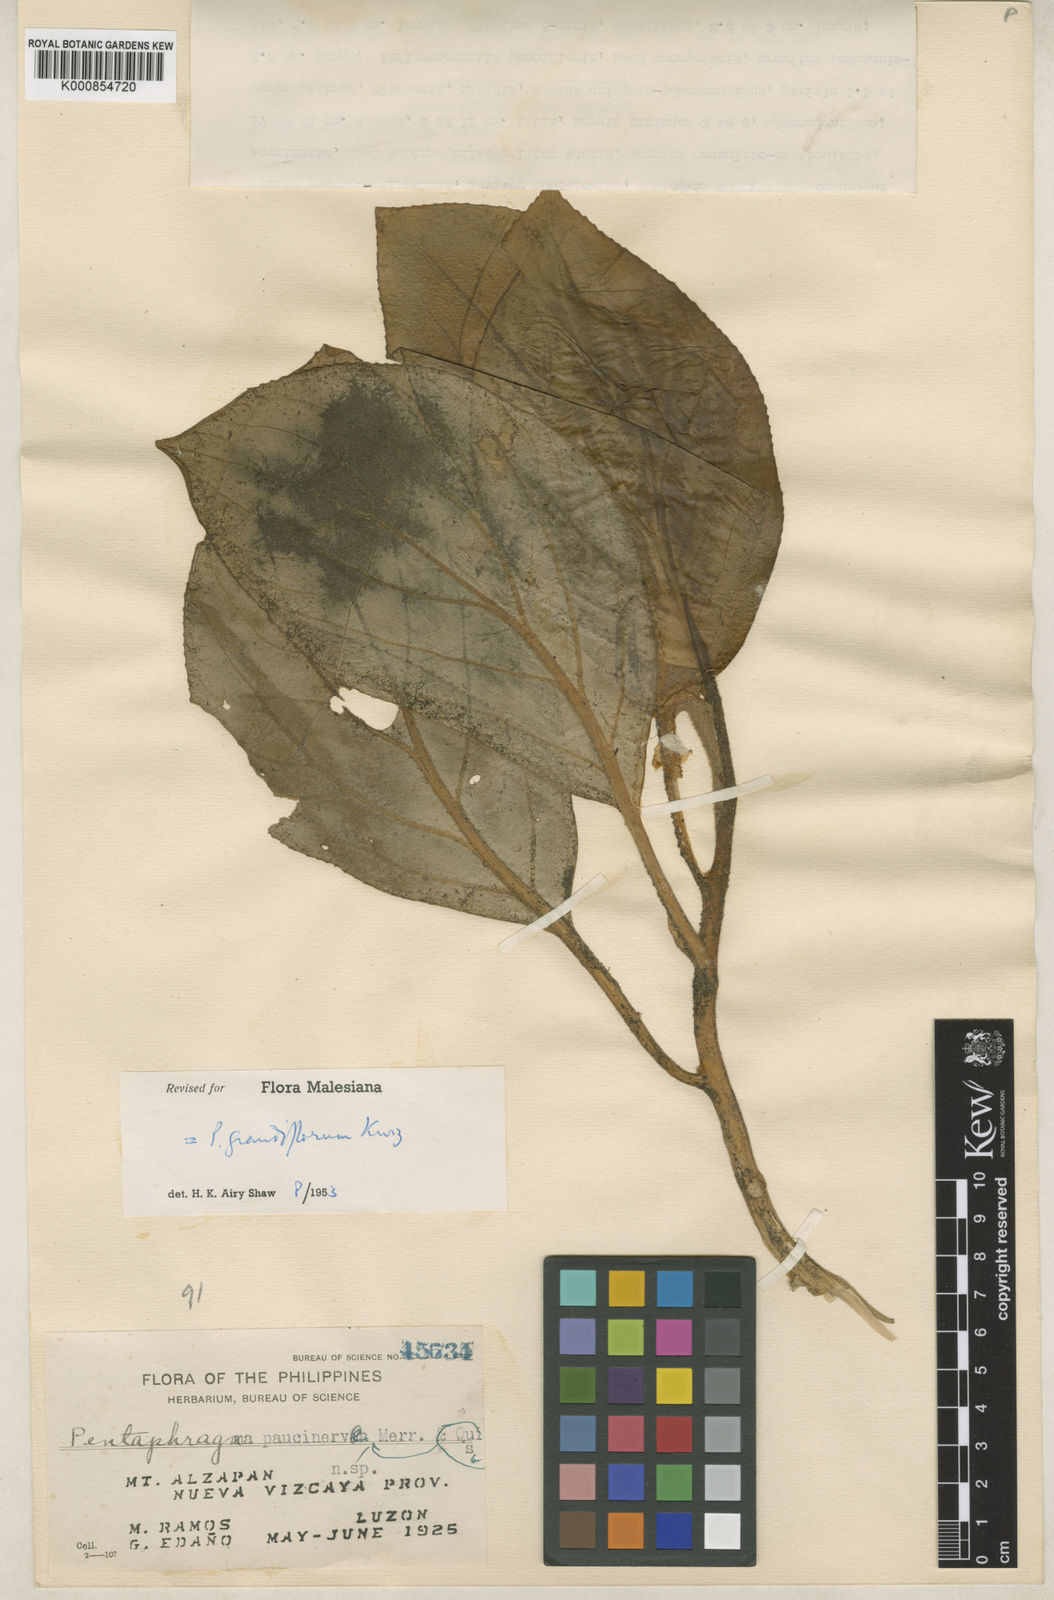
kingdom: Plantae
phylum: Tracheophyta
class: Magnoliopsida
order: Asterales
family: Pentaphragmataceae
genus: Pentaphragma
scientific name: Pentaphragma grandiflorum
